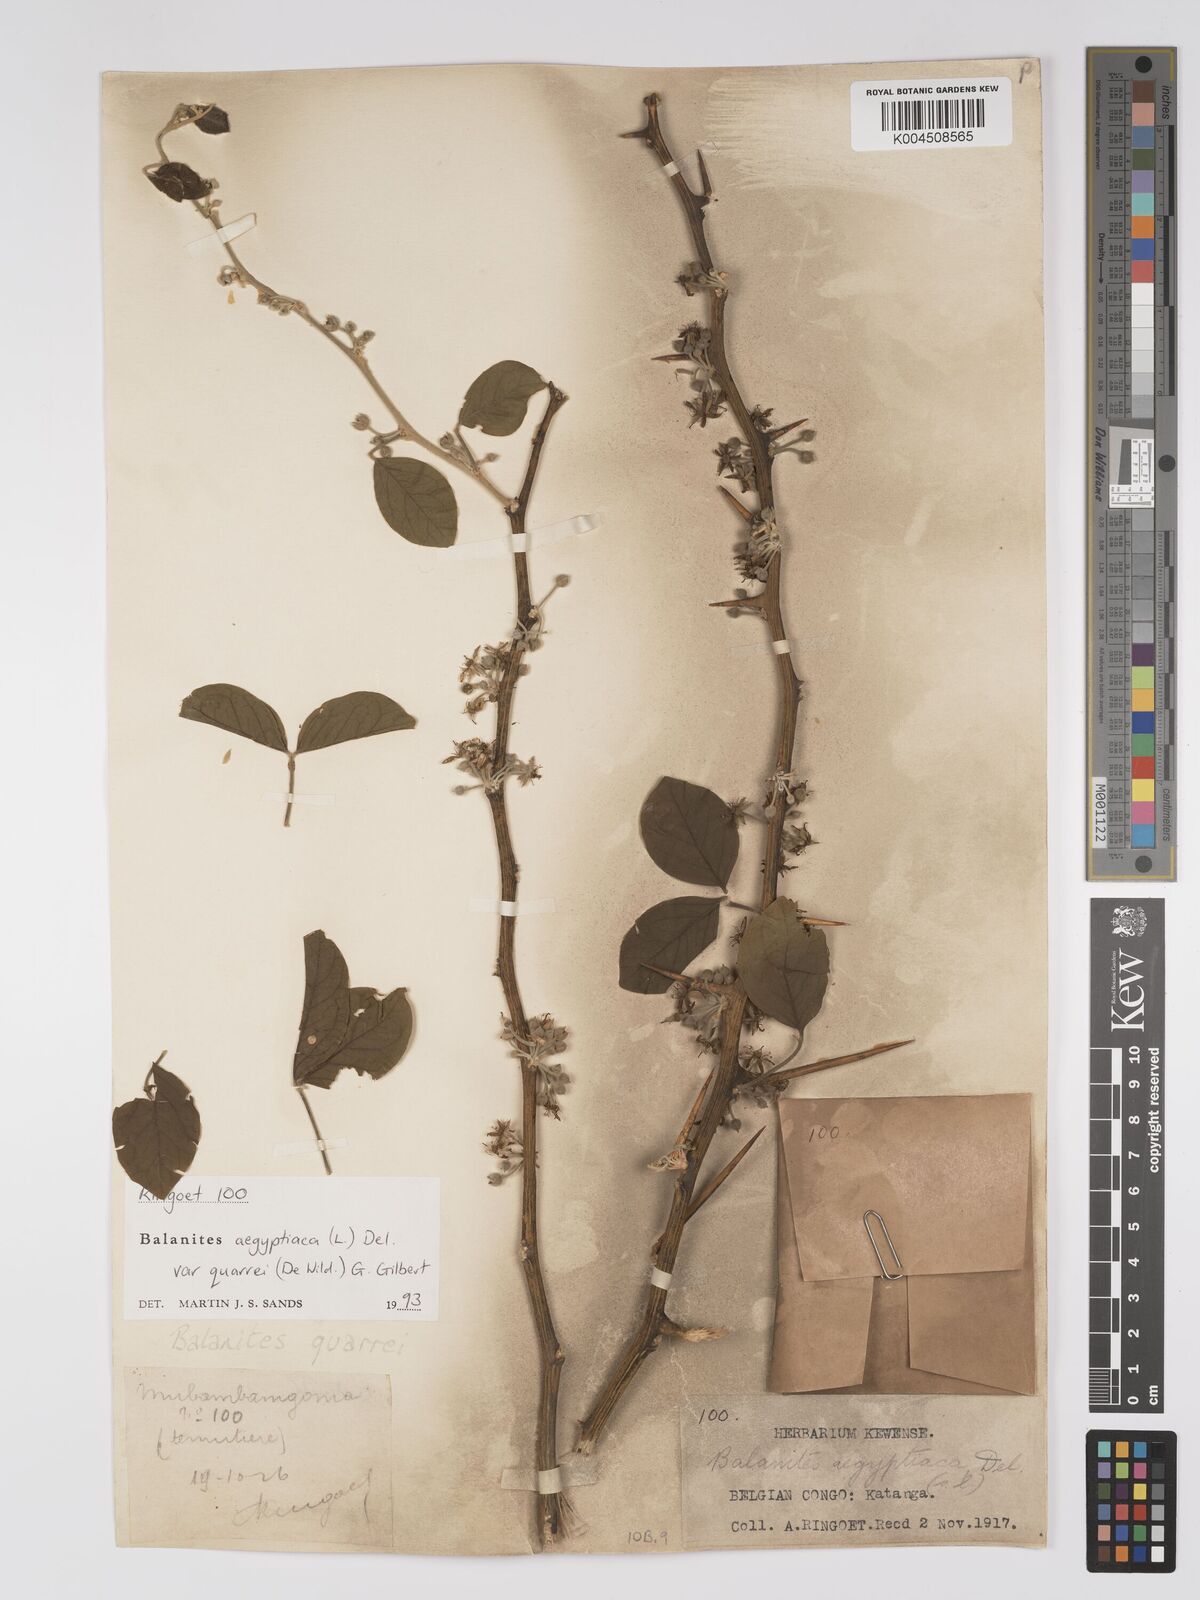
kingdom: Plantae
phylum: Tracheophyta
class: Magnoliopsida
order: Zygophyllales
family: Zygophyllaceae
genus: Balanites
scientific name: Balanites aegyptiaca
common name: Balanites
